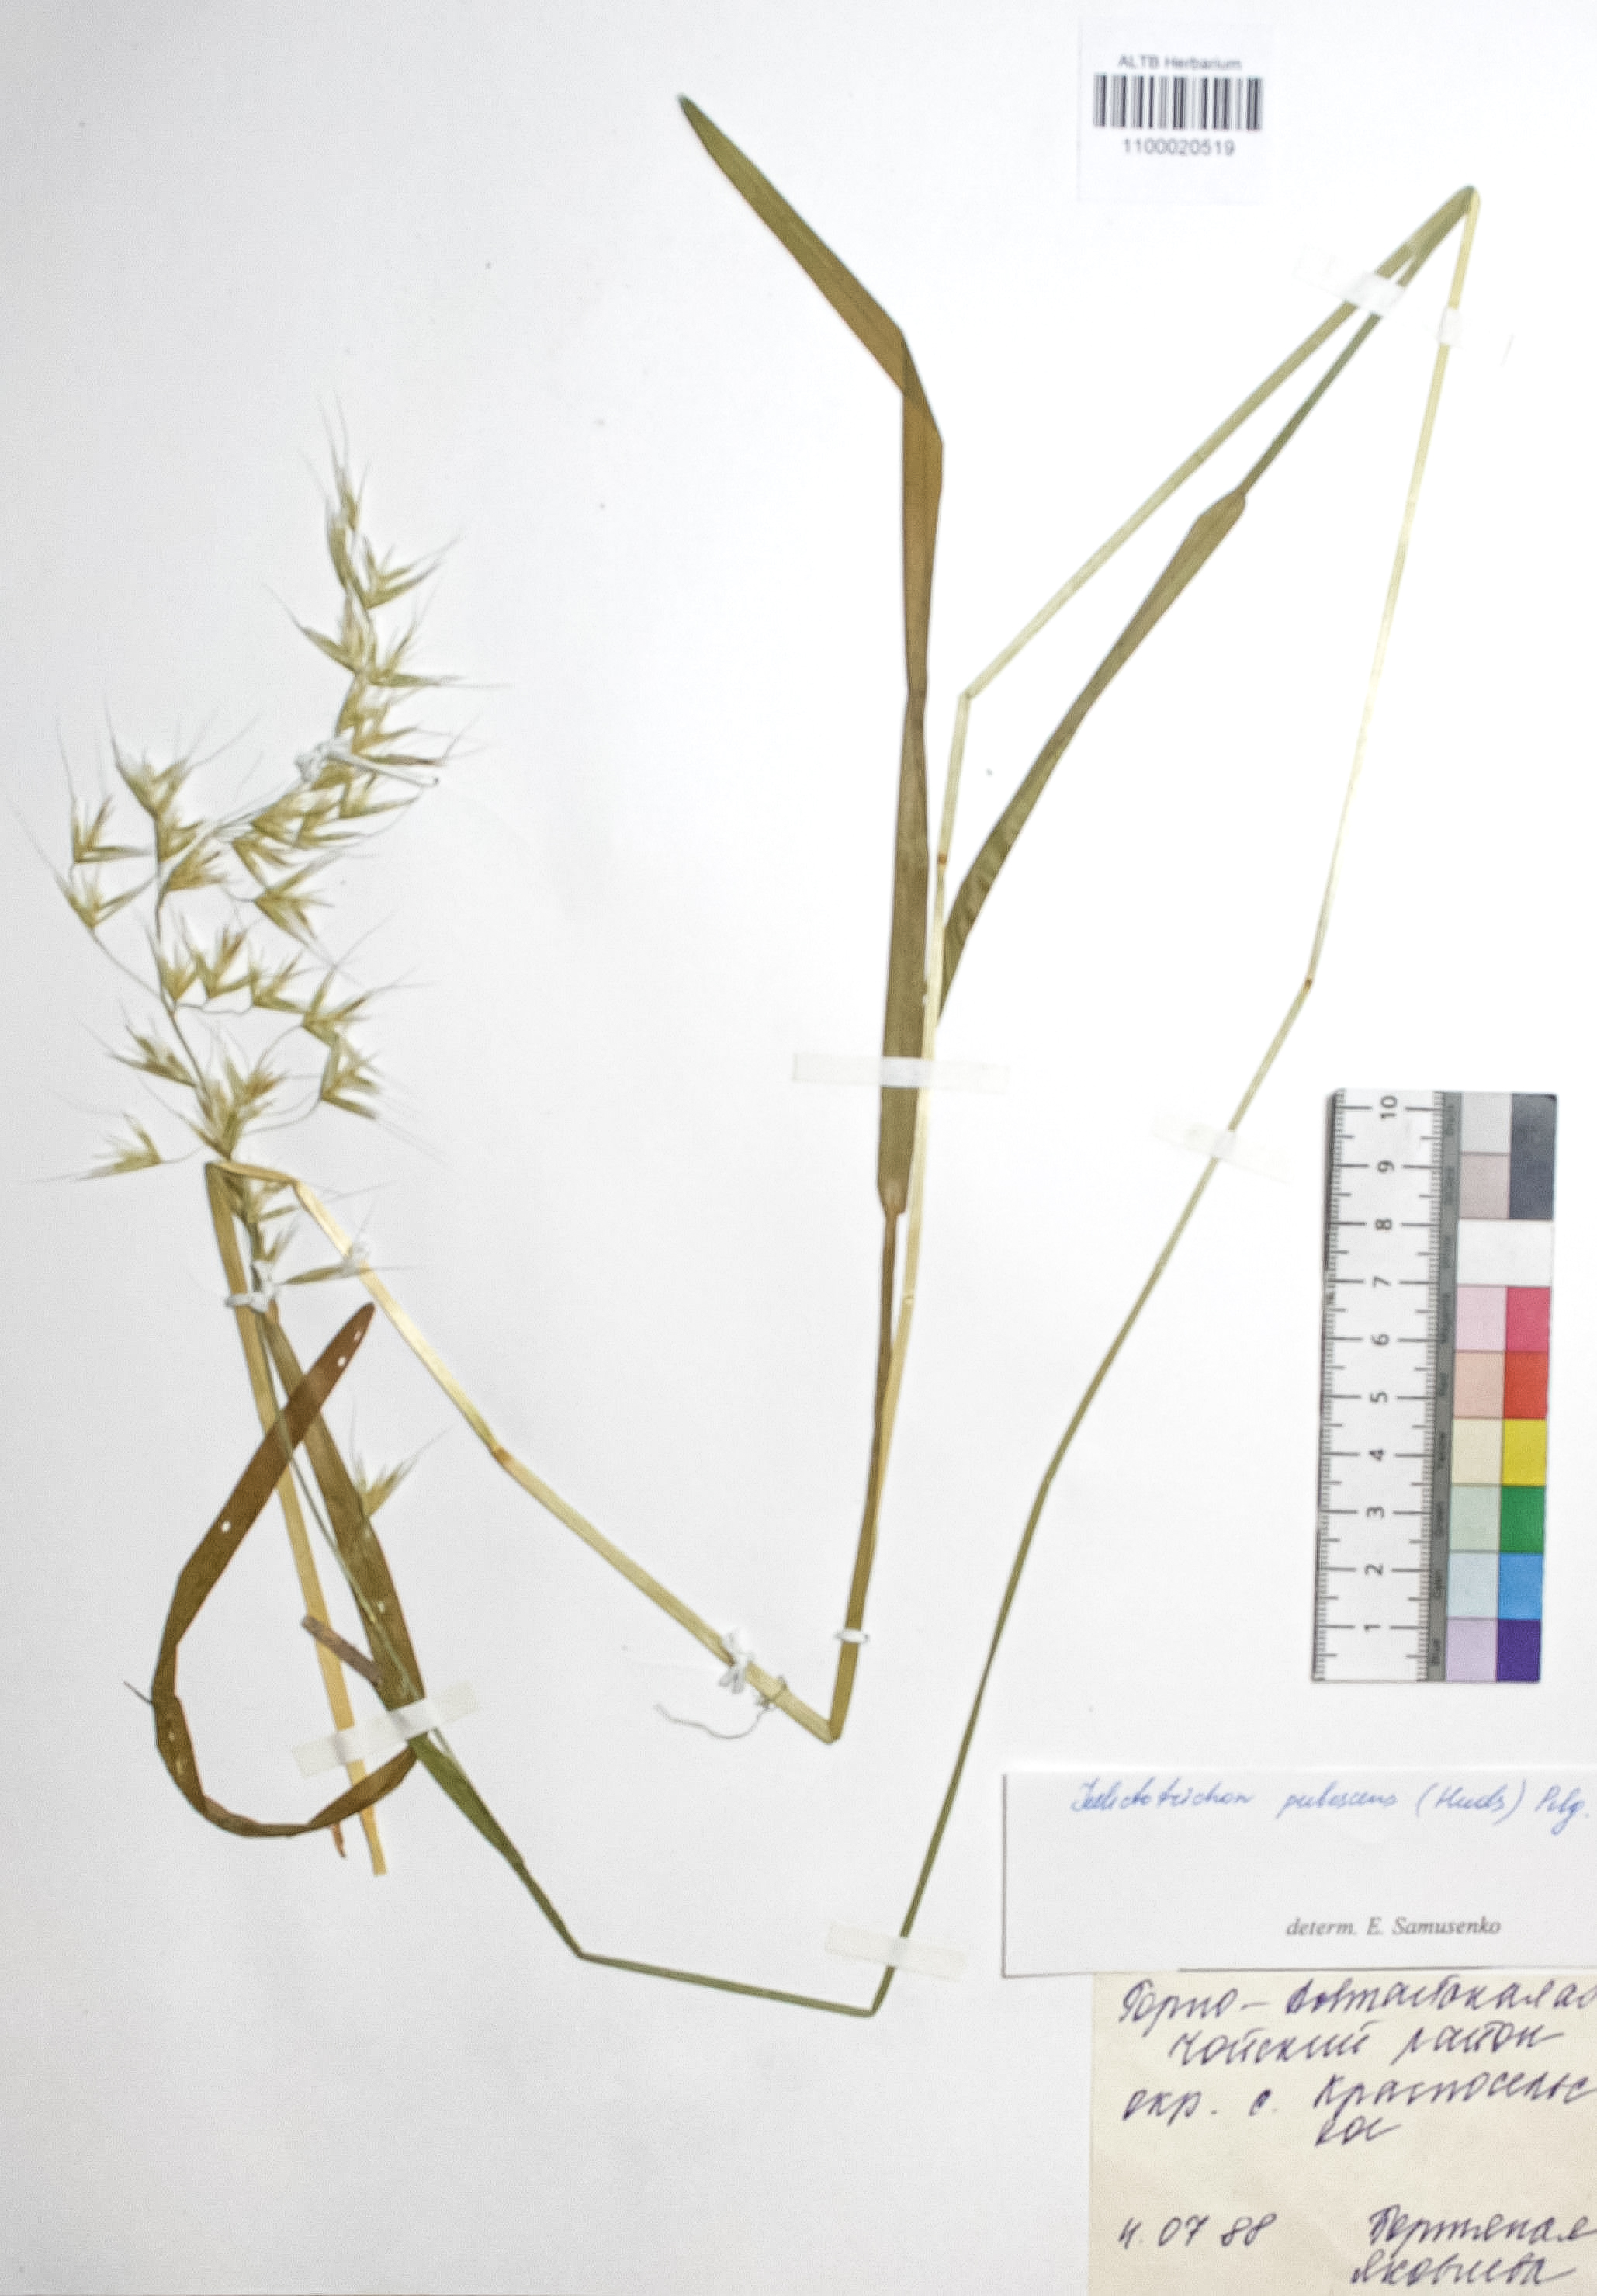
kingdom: Plantae
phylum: Tracheophyta
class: Liliopsida
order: Poales
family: Poaceae
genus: Avenula
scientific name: Avenula pubescens
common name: Downy alpine oatgrass
